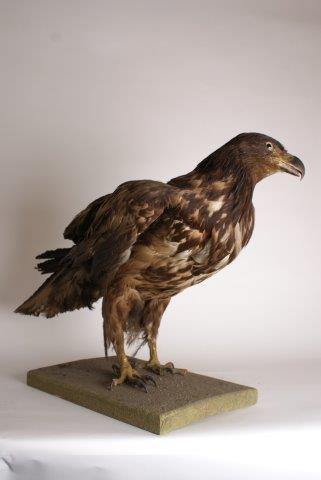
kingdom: Animalia
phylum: Chordata
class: Aves
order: Accipitriformes
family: Accipitridae
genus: Haliaeetus
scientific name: Haliaeetus albicilla
